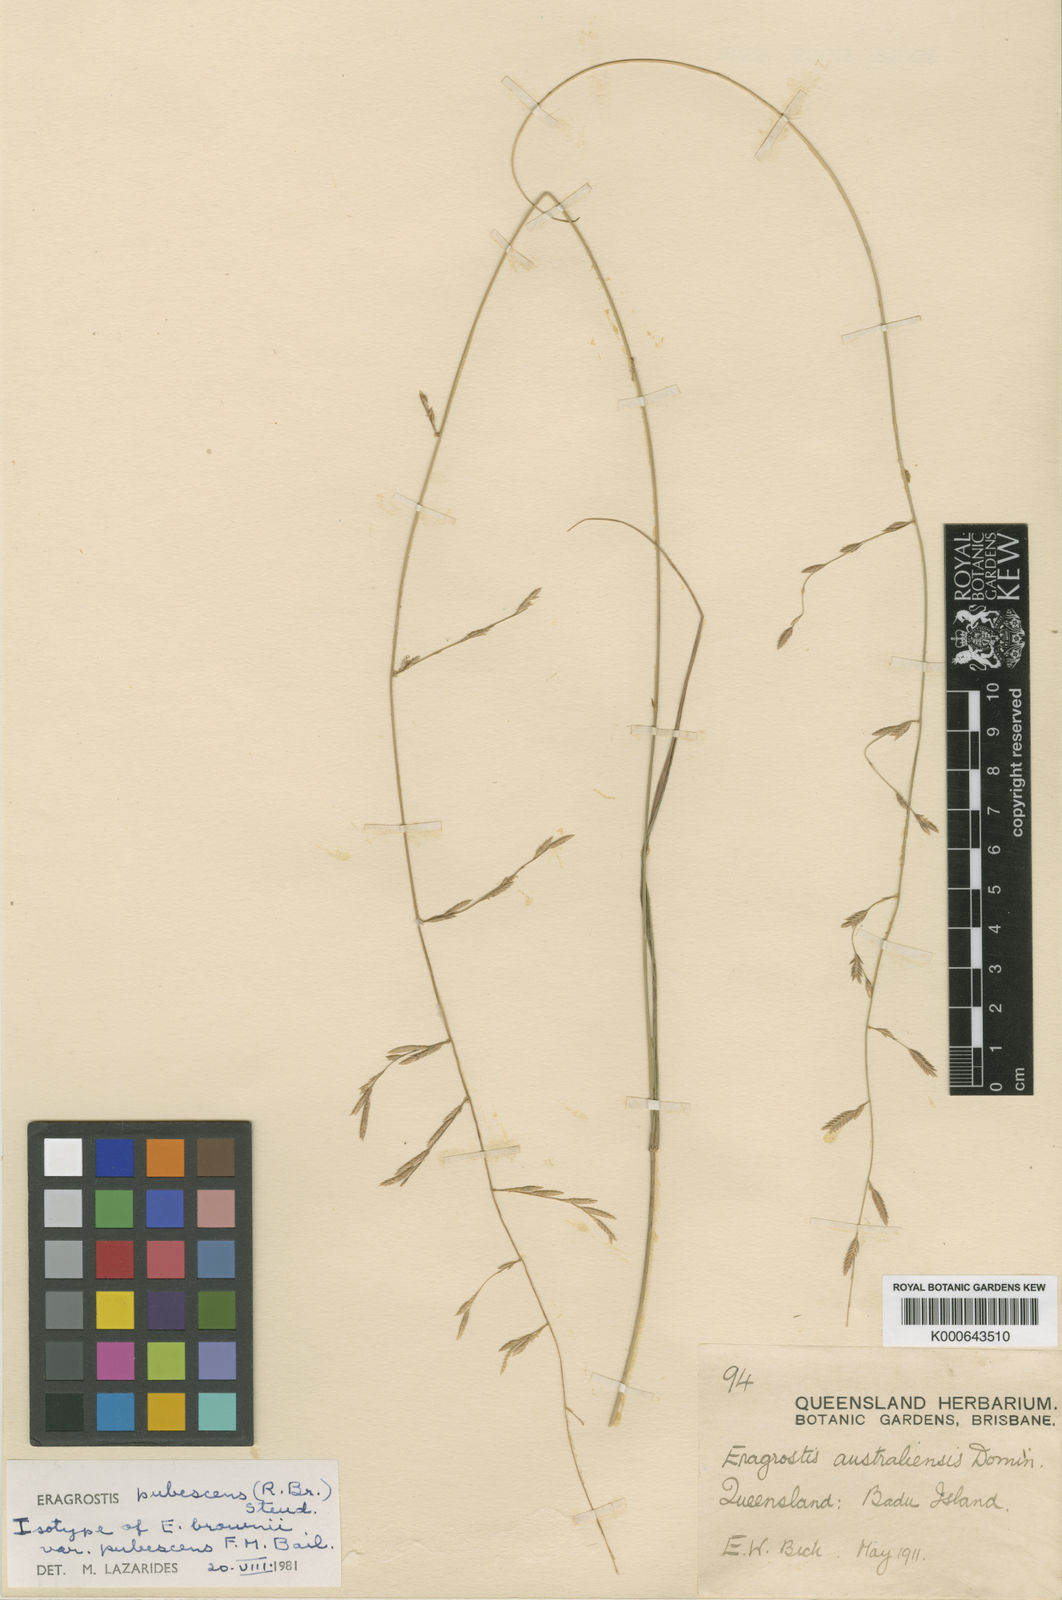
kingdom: Plantae
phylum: Tracheophyta
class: Liliopsida
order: Poales
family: Poaceae
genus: Eragrostis
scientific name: Eragrostis pubescens
